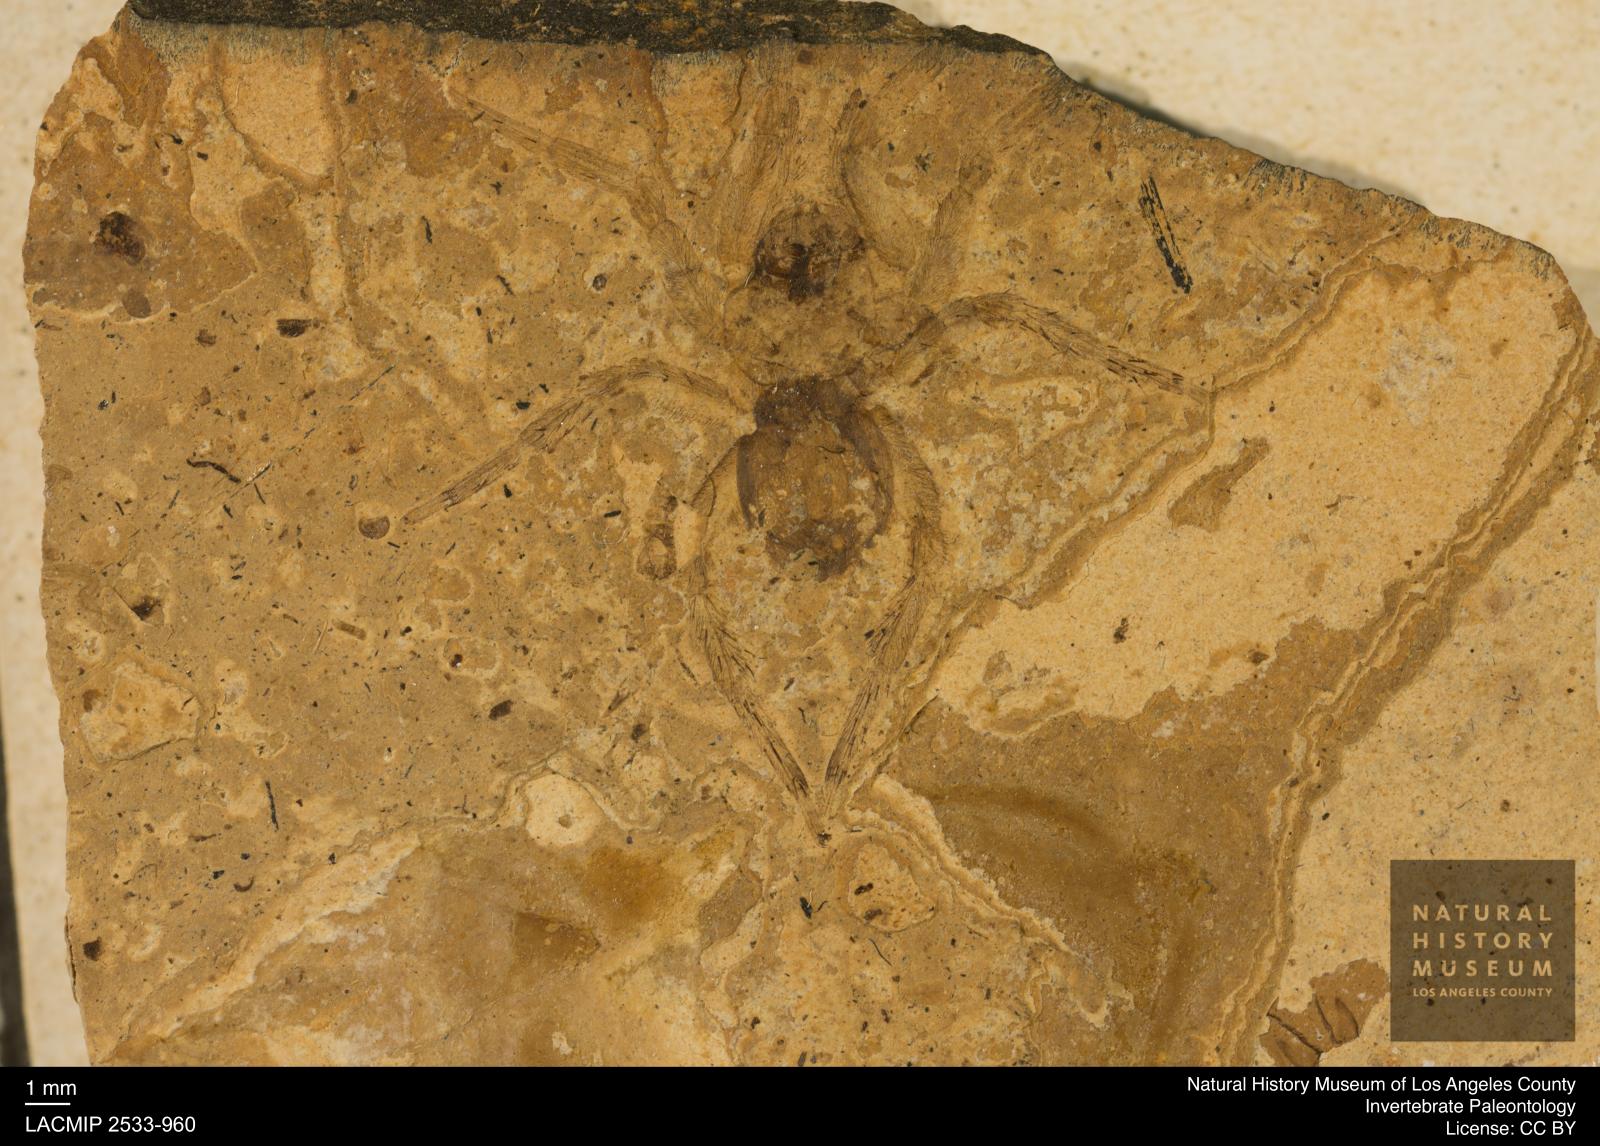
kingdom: Animalia
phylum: Arthropoda
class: Arachnida
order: Araneae
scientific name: Araneae
